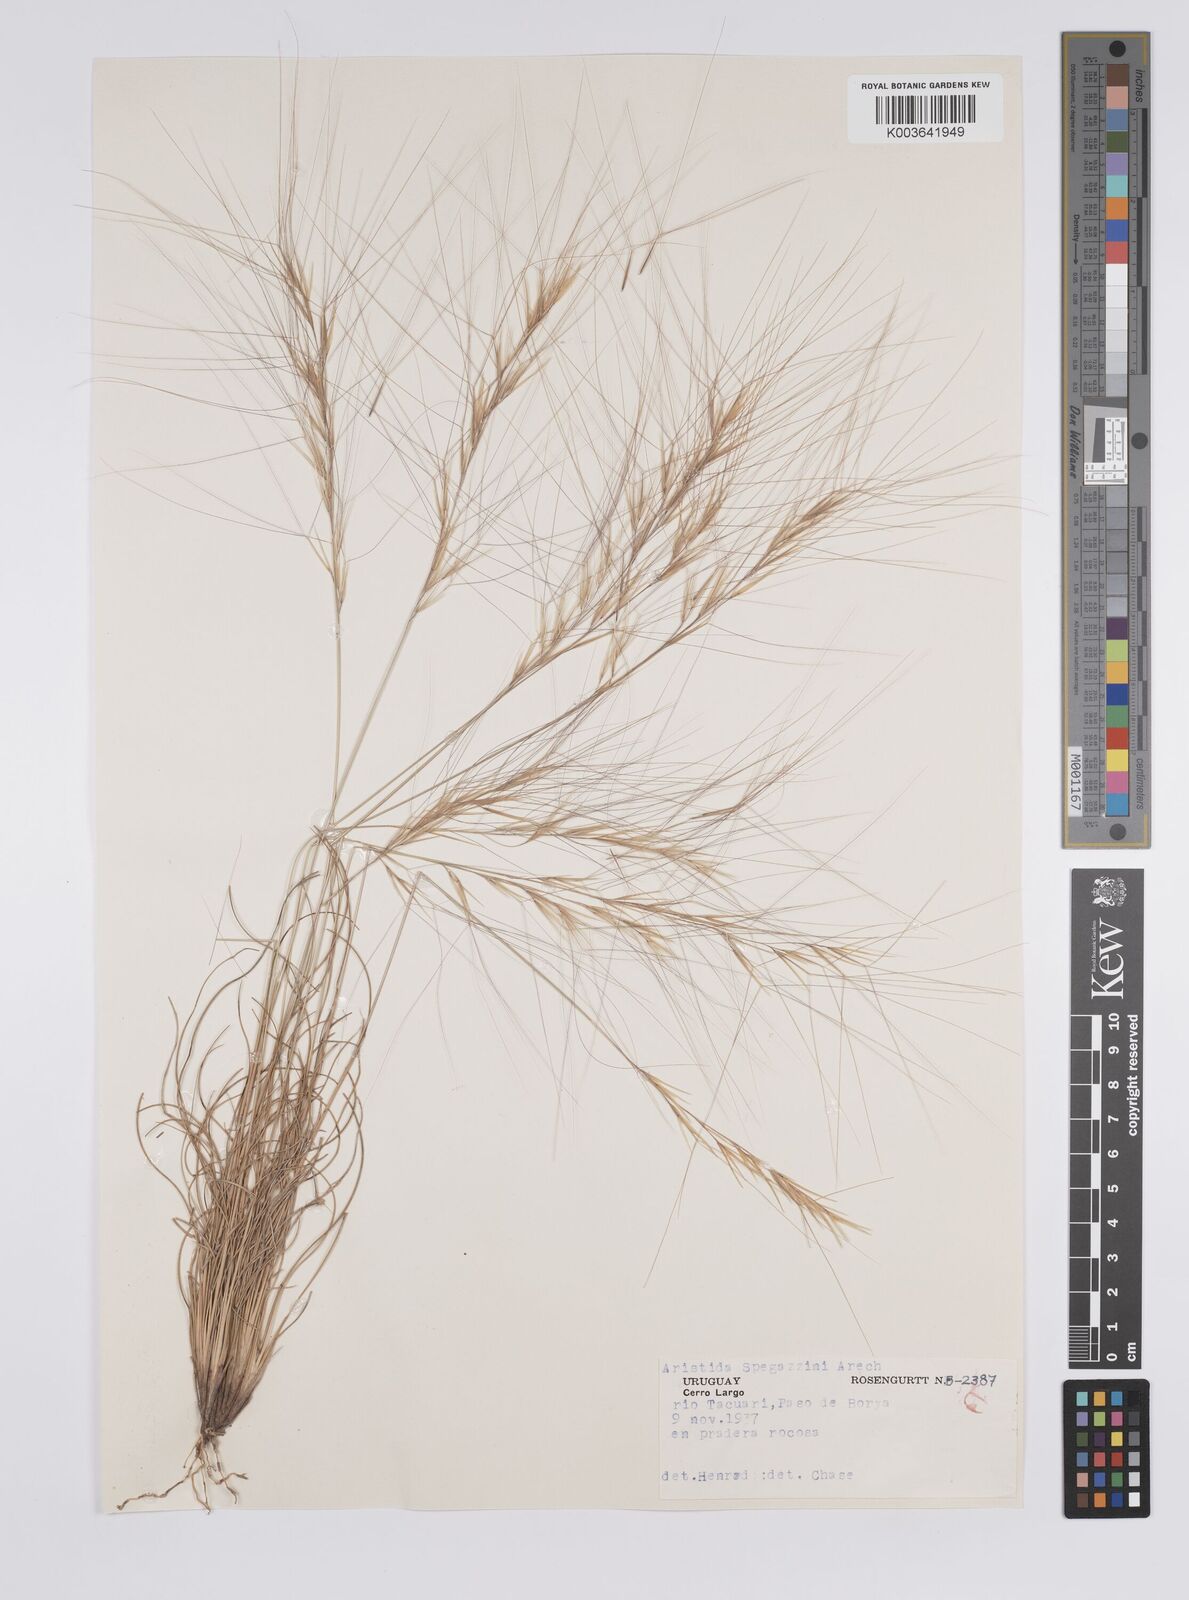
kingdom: Plantae
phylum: Tracheophyta
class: Liliopsida
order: Poales
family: Poaceae
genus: Aristida
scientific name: Aristida spegazzinii
